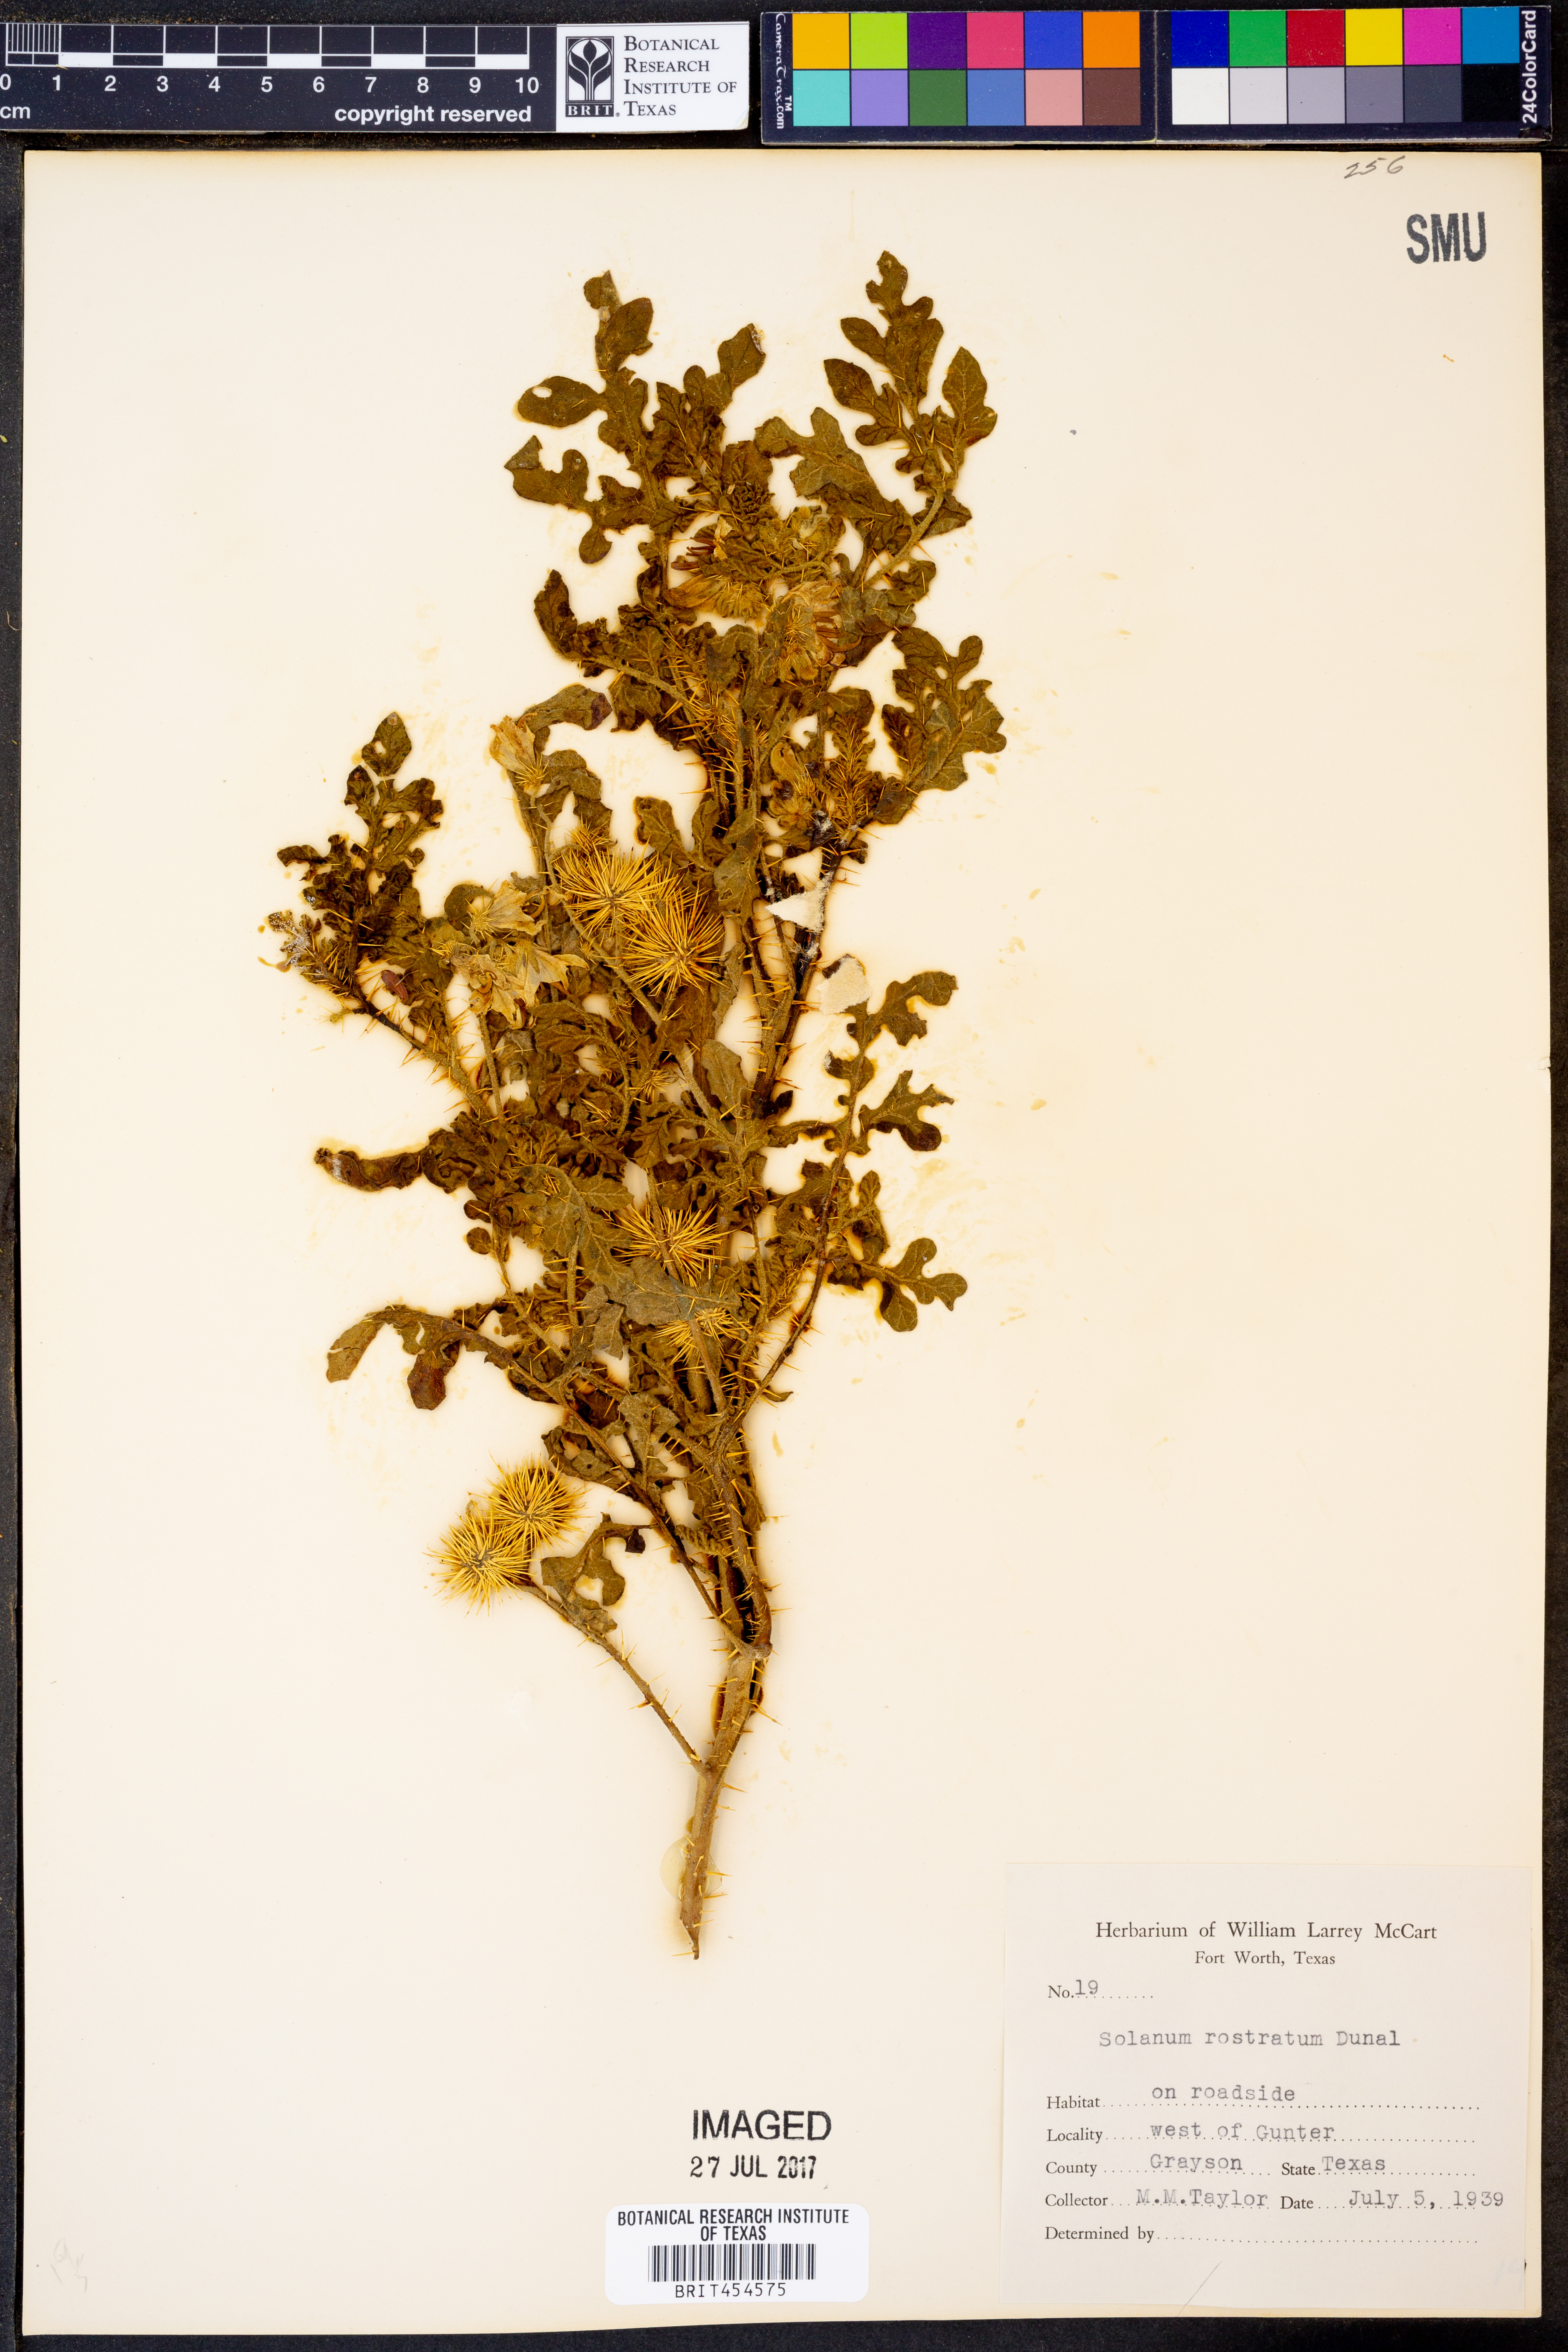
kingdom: Plantae
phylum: Tracheophyta
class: Magnoliopsida
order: Solanales
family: Solanaceae
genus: Solanum
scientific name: Solanum angustifolium
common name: Buffalobur nightshade
